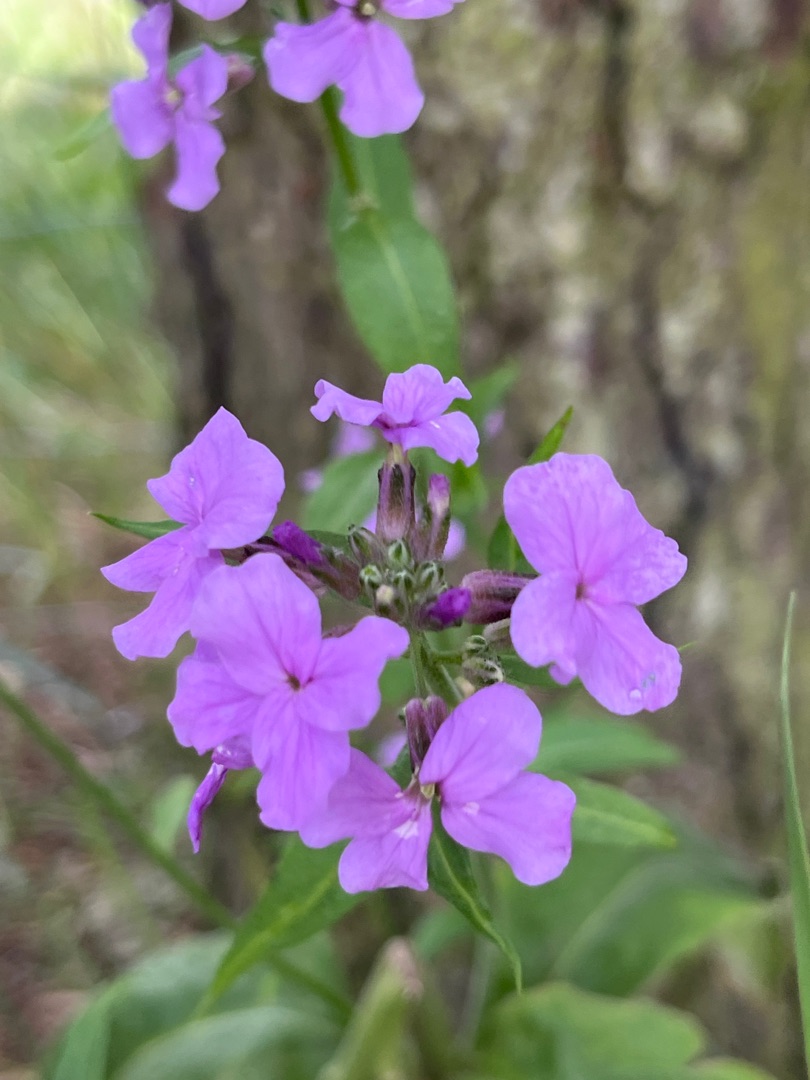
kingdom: Plantae
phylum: Tracheophyta
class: Magnoliopsida
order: Brassicales
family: Brassicaceae
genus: Hesperis
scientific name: Hesperis matronalis
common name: Aftenstjerne
